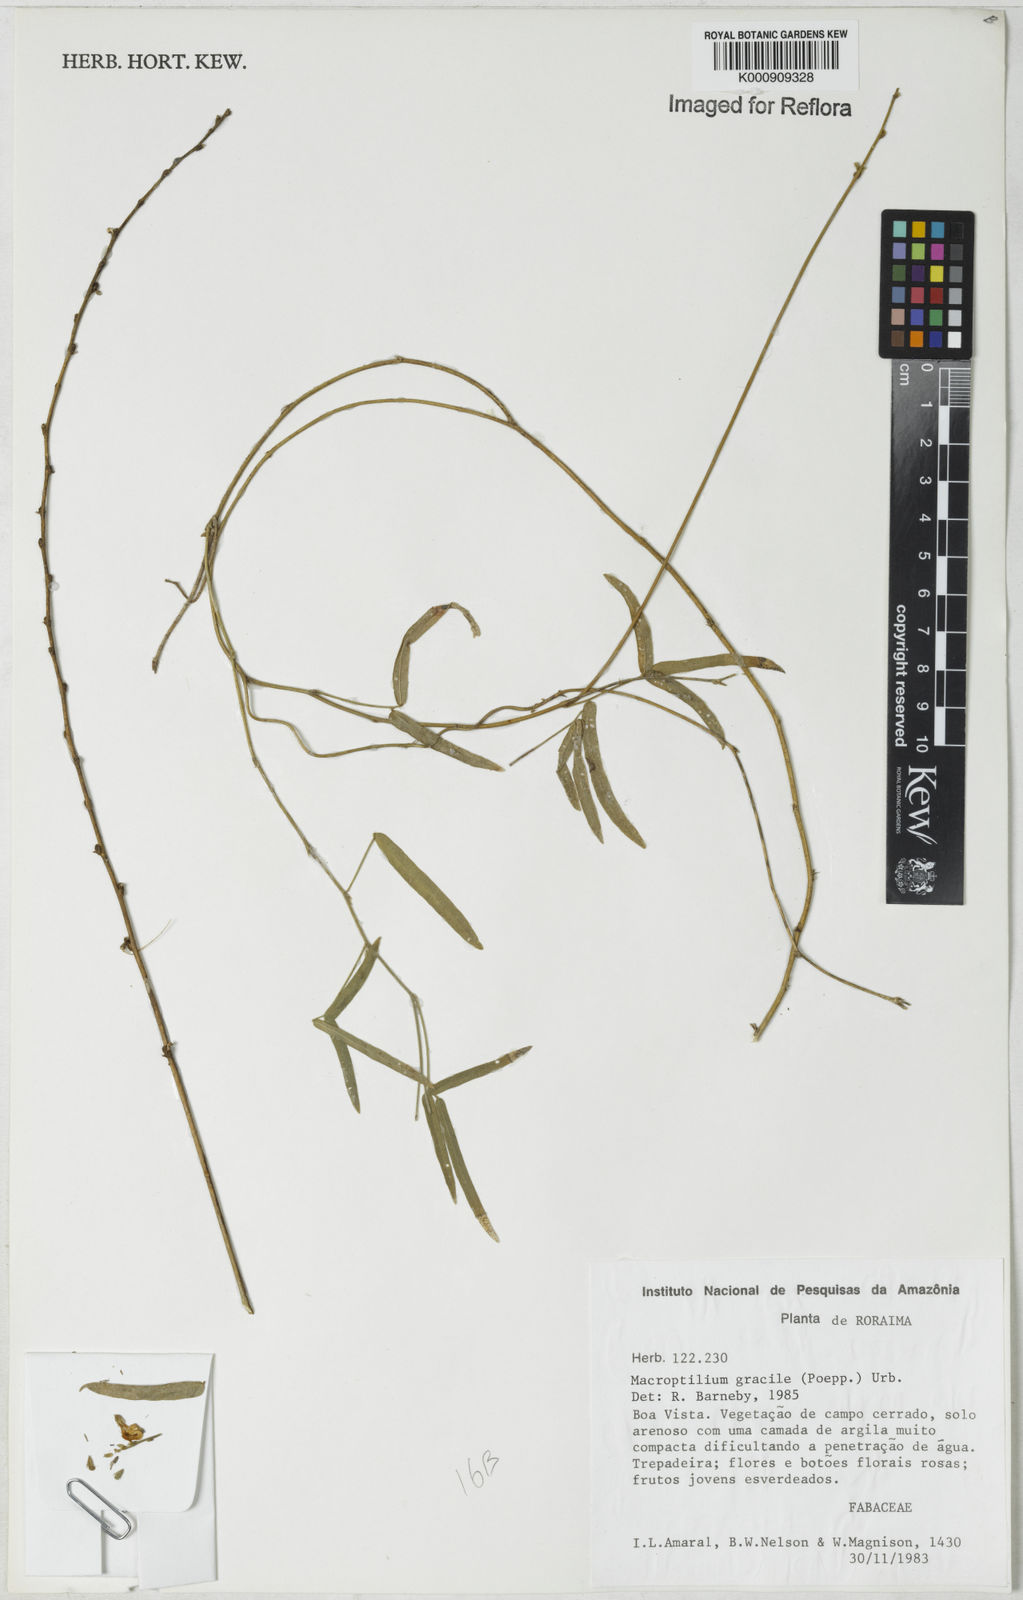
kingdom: Plantae
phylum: Tracheophyta
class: Magnoliopsida
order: Fabales
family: Fabaceae
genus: Macroptilium
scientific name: Macroptilium gracile
